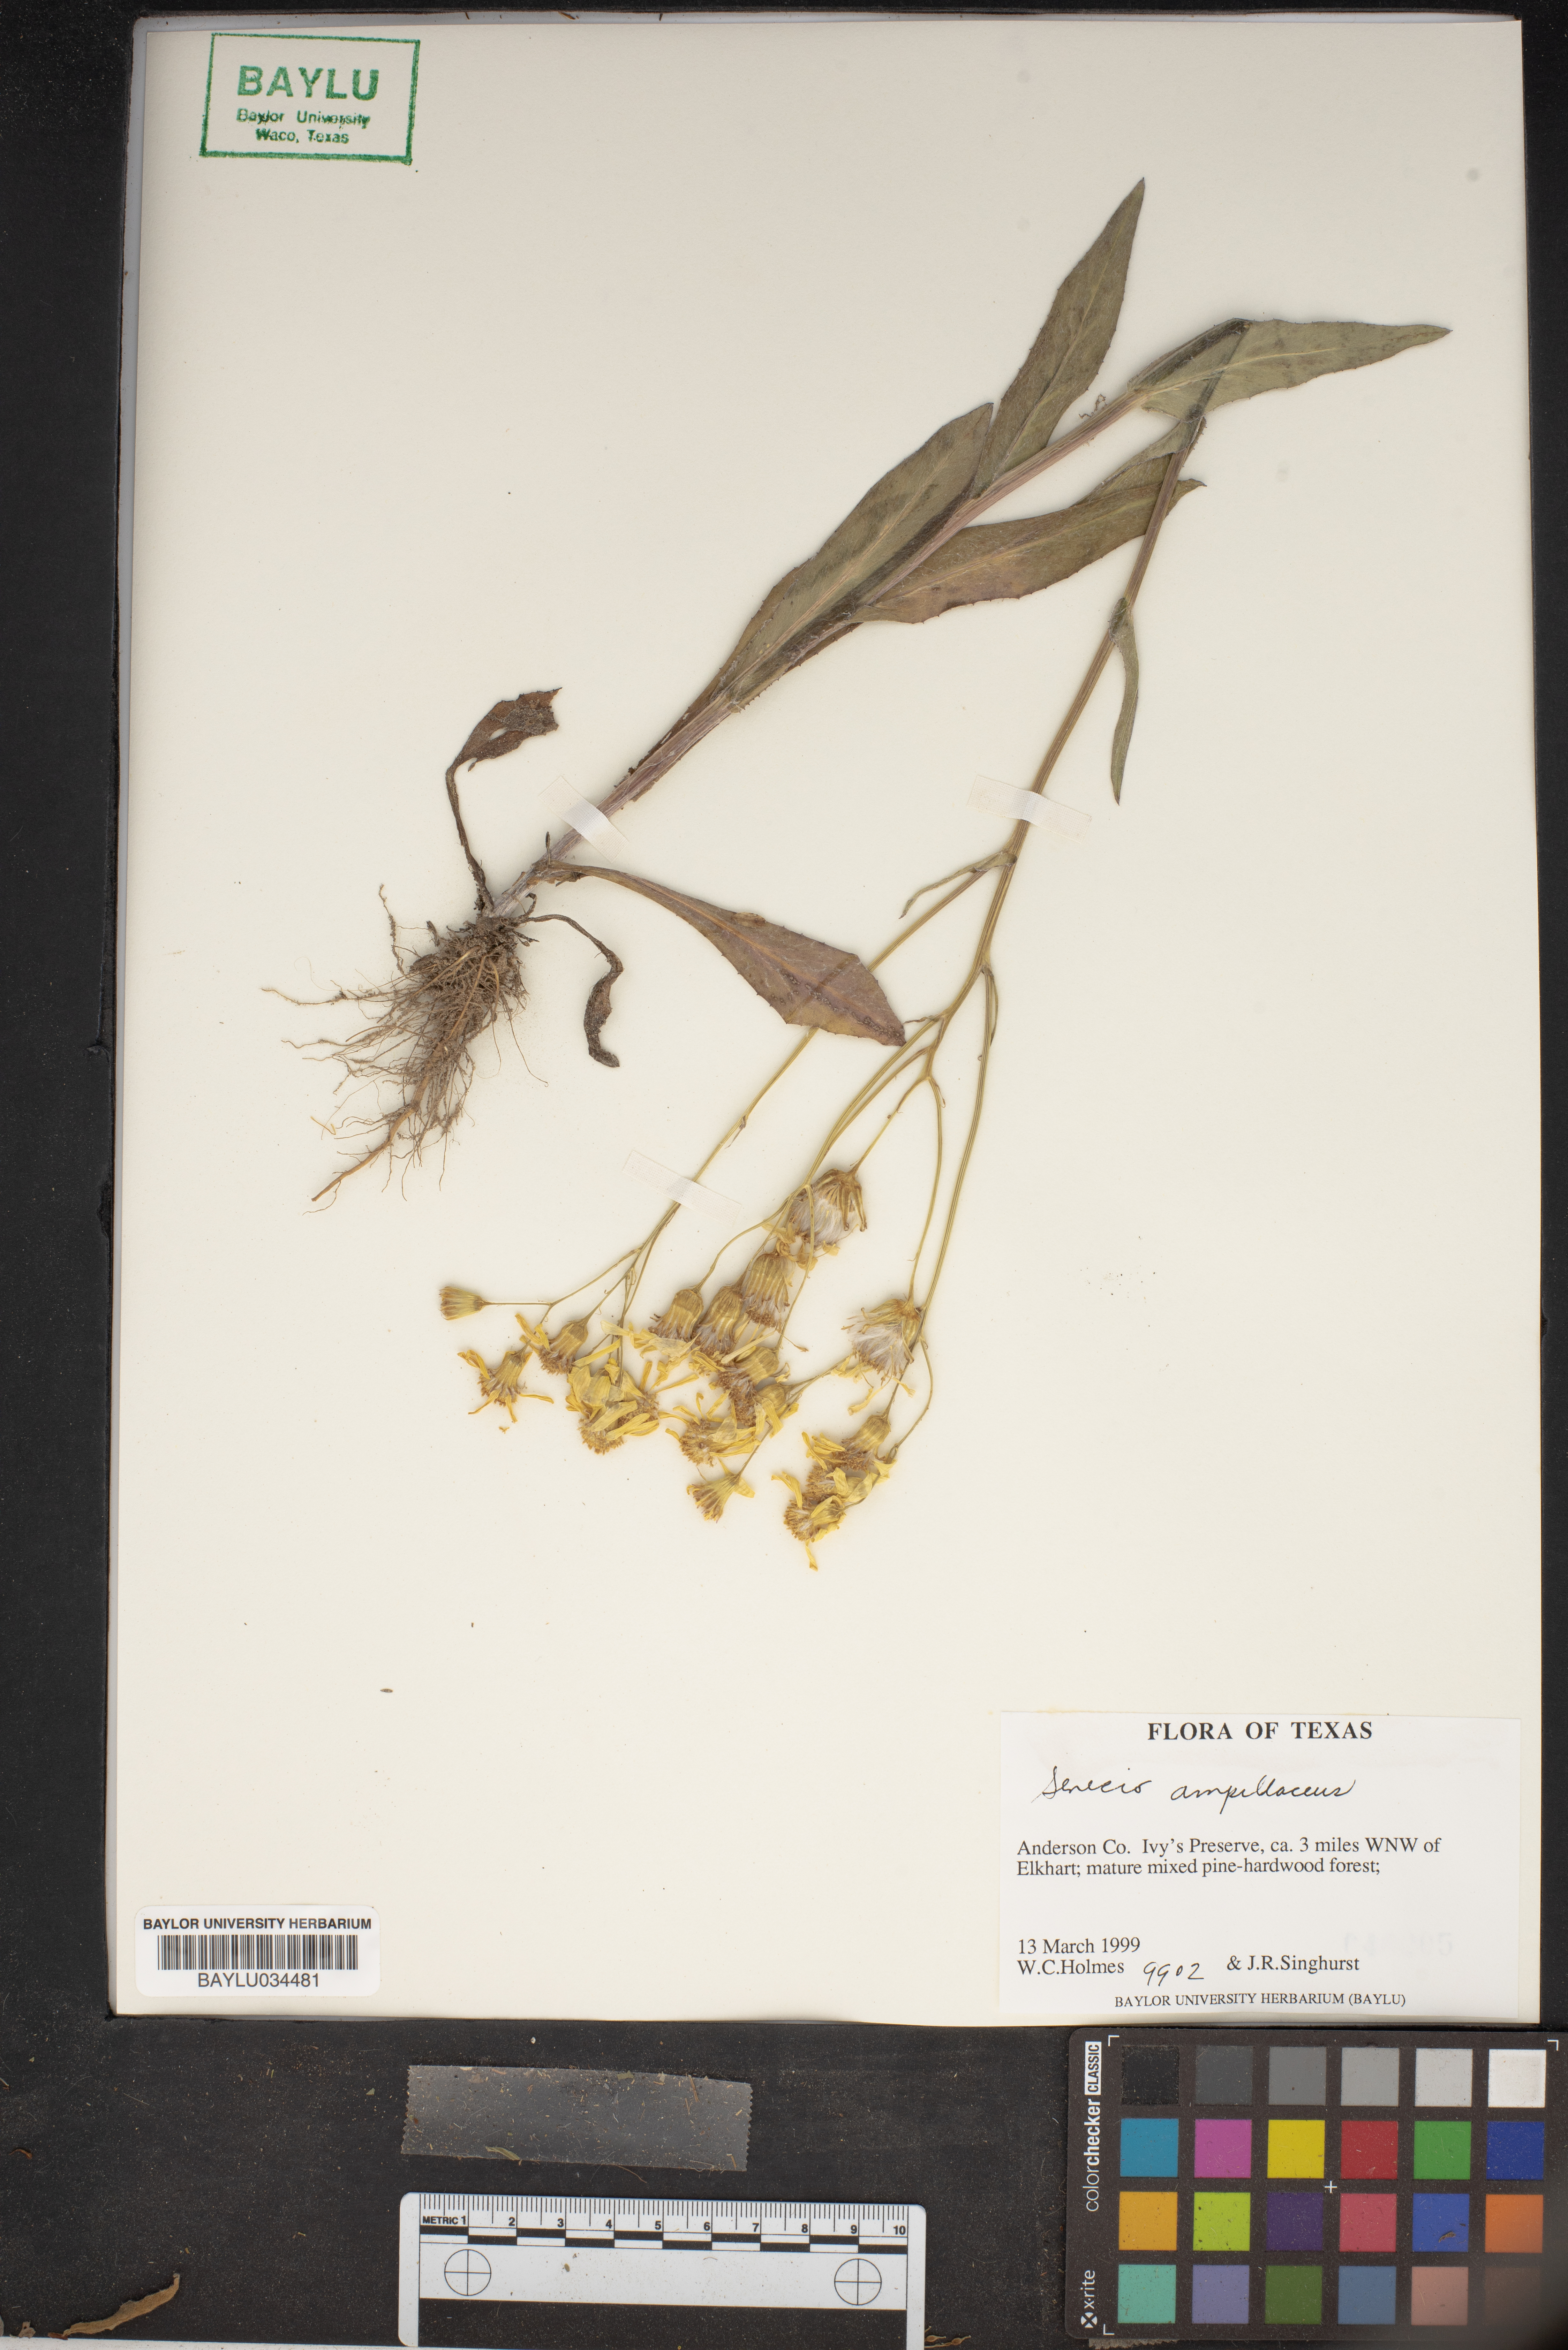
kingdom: Plantae
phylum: Tracheophyta
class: Magnoliopsida
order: Asterales
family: Asteraceae
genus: Senecio
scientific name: Senecio ampullaceus
